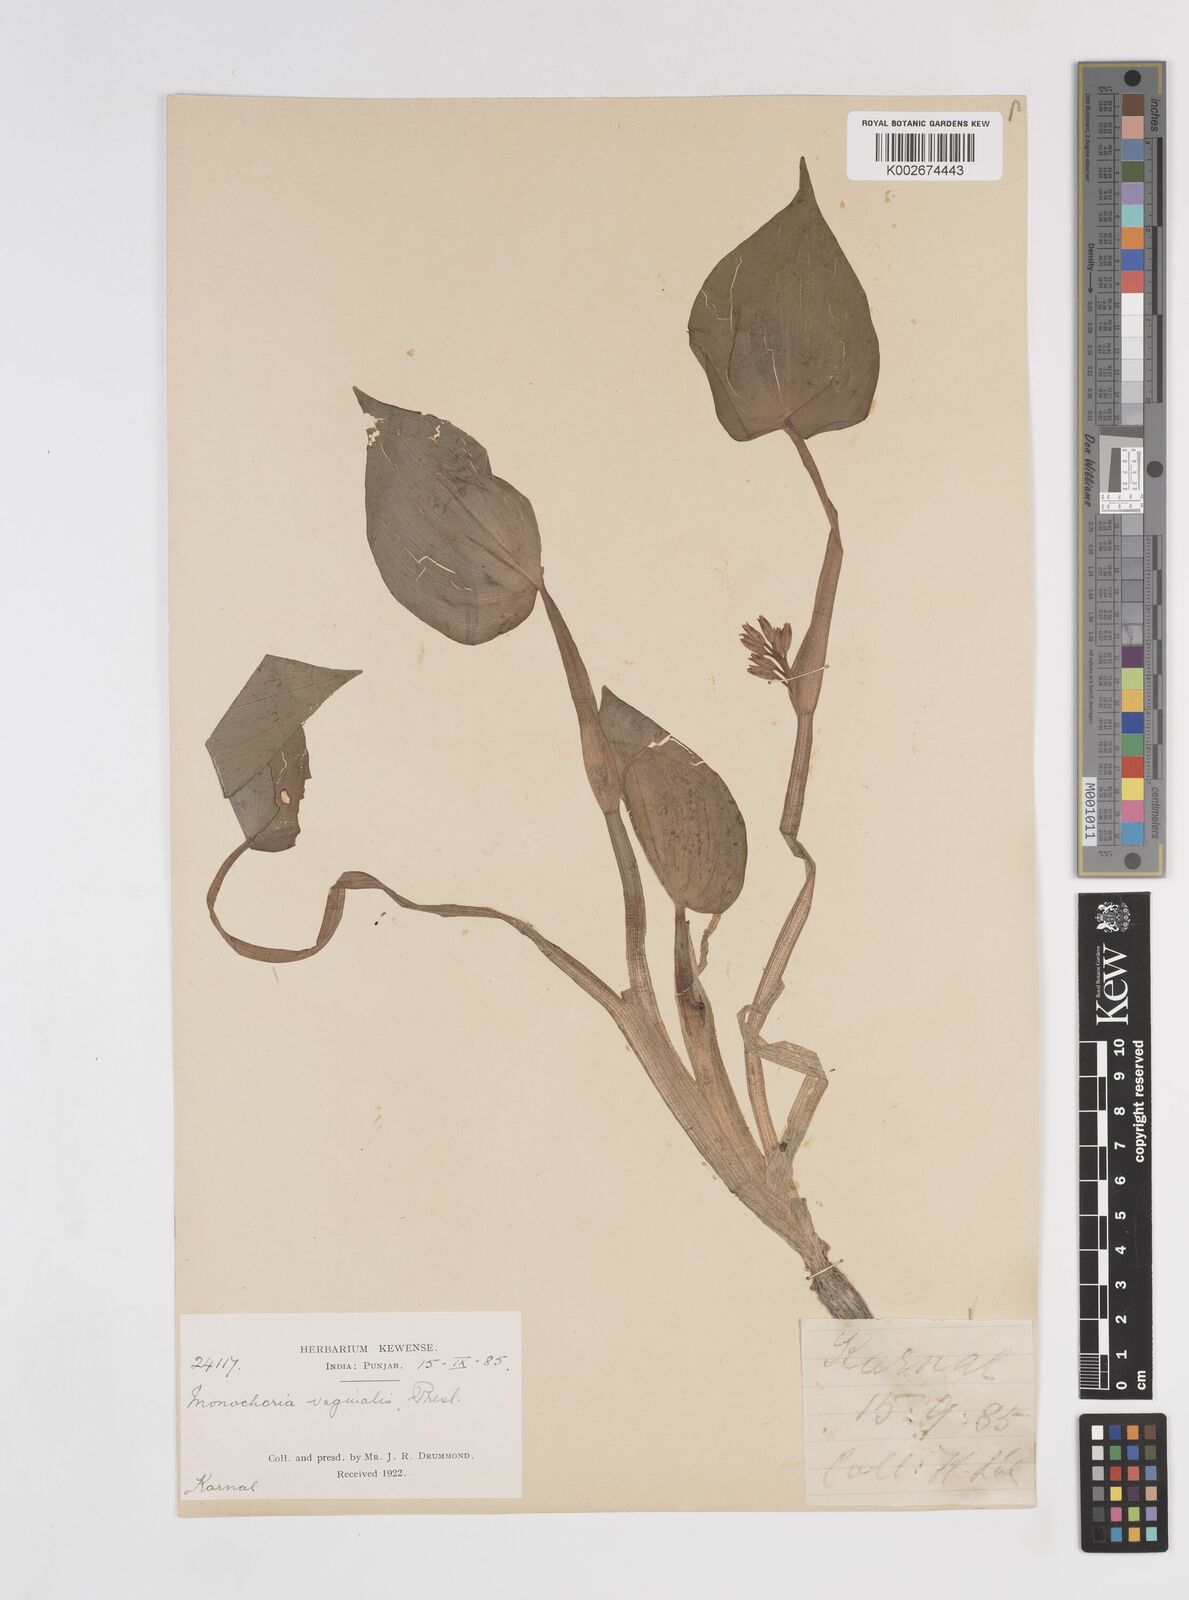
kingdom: Plantae
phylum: Tracheophyta
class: Liliopsida
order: Commelinales
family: Pontederiaceae
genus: Pontederia
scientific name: Pontederia vaginalis
